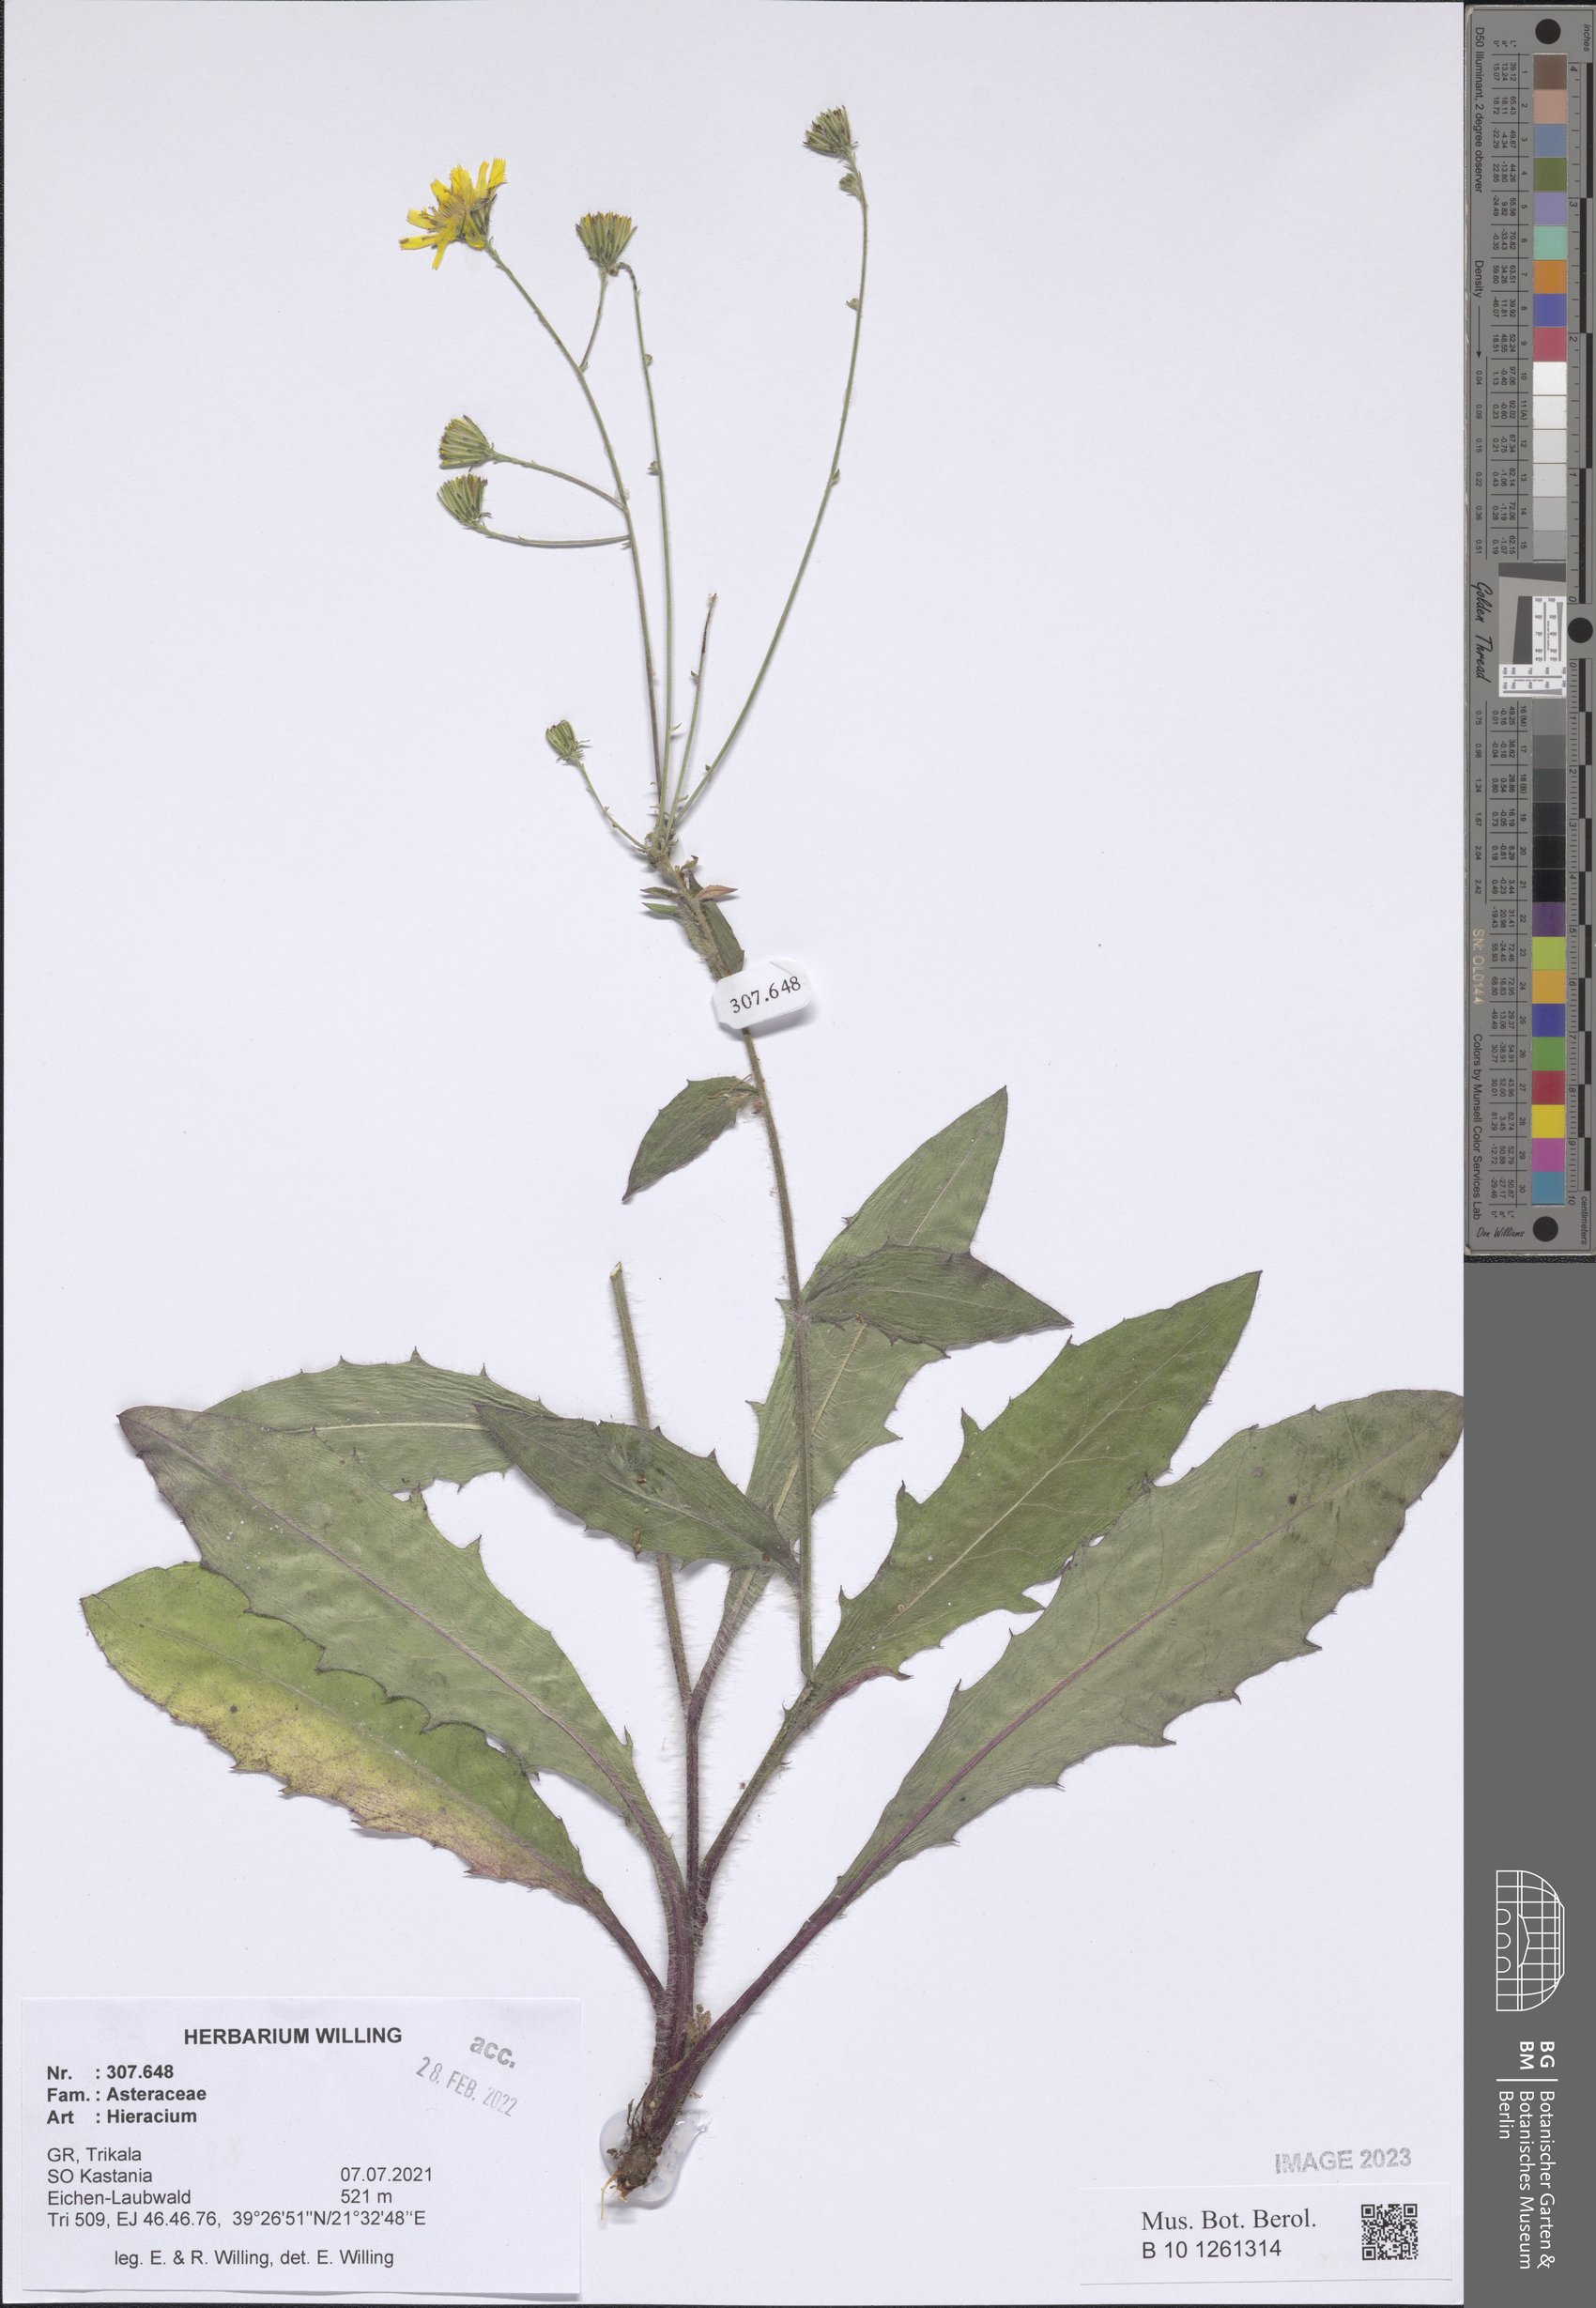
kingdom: Plantae
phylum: Tracheophyta
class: Magnoliopsida
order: Asterales
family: Asteraceae
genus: Hieracium
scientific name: Hieracium
